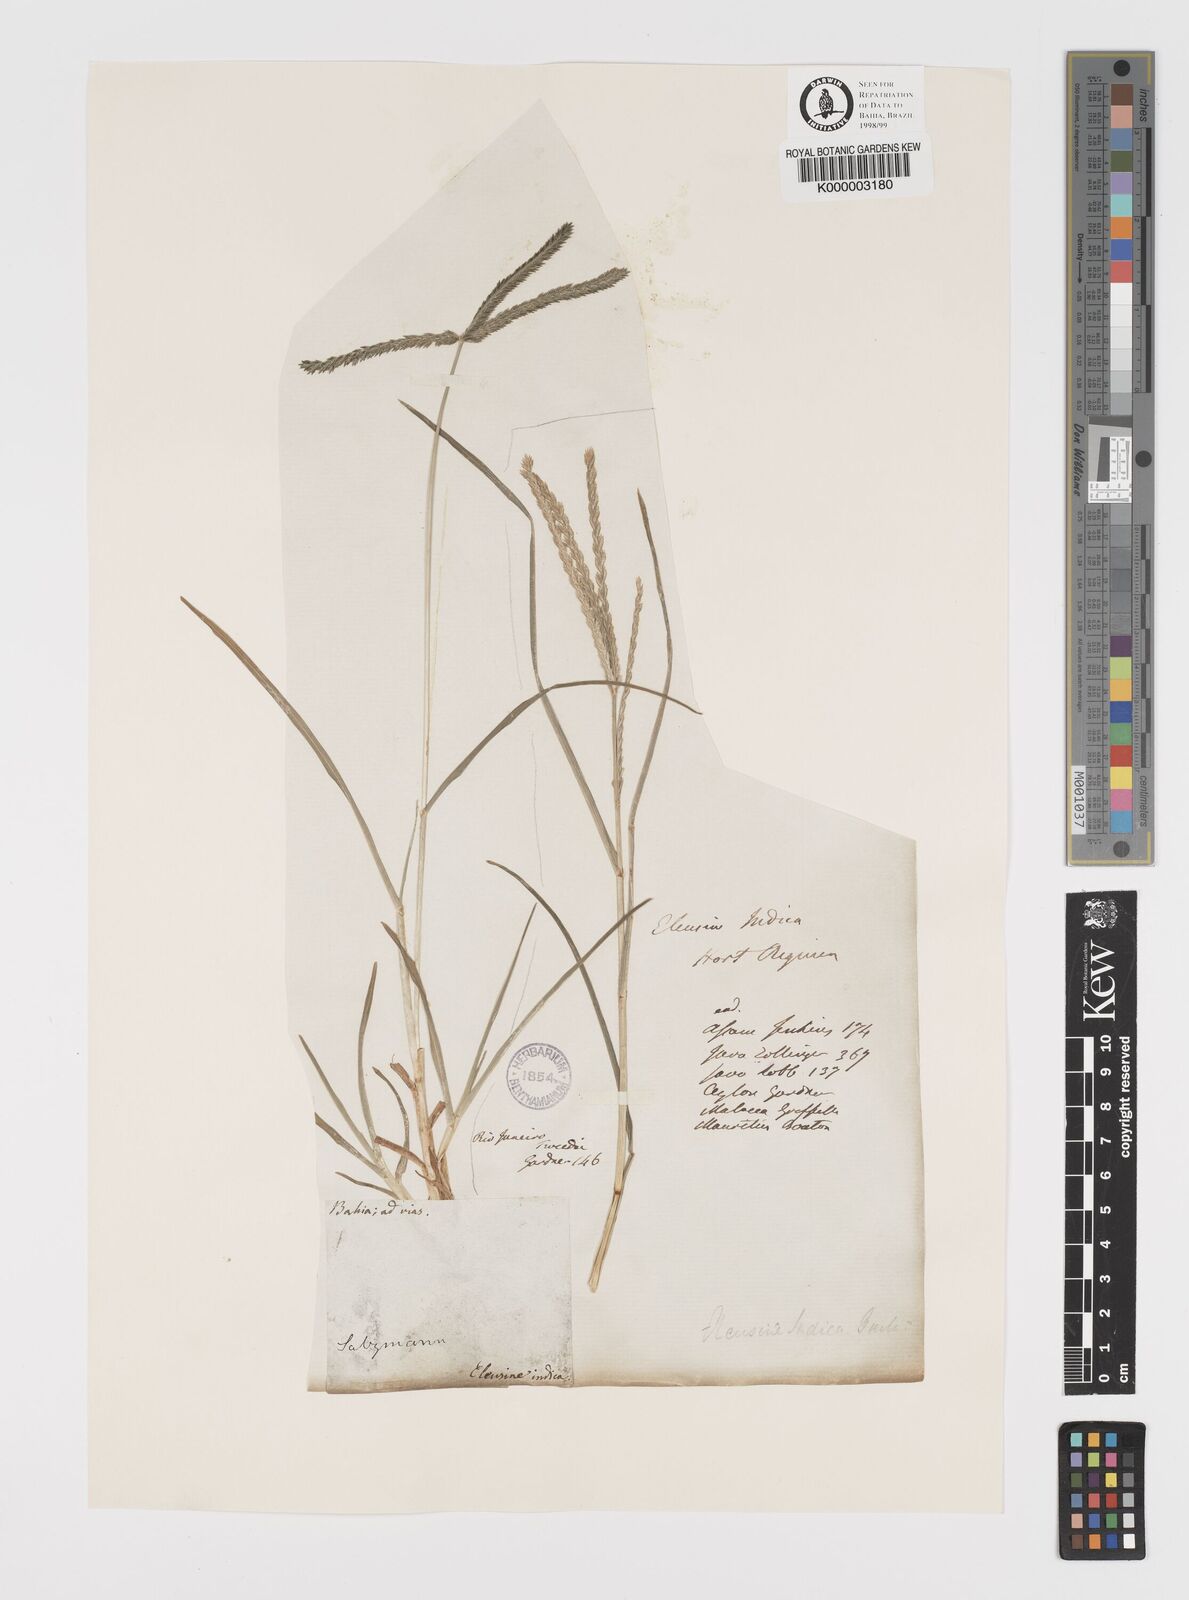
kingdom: Plantae
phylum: Tracheophyta
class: Liliopsida
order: Poales
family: Poaceae
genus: Eleusine
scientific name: Eleusine indica
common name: Yard-grass
